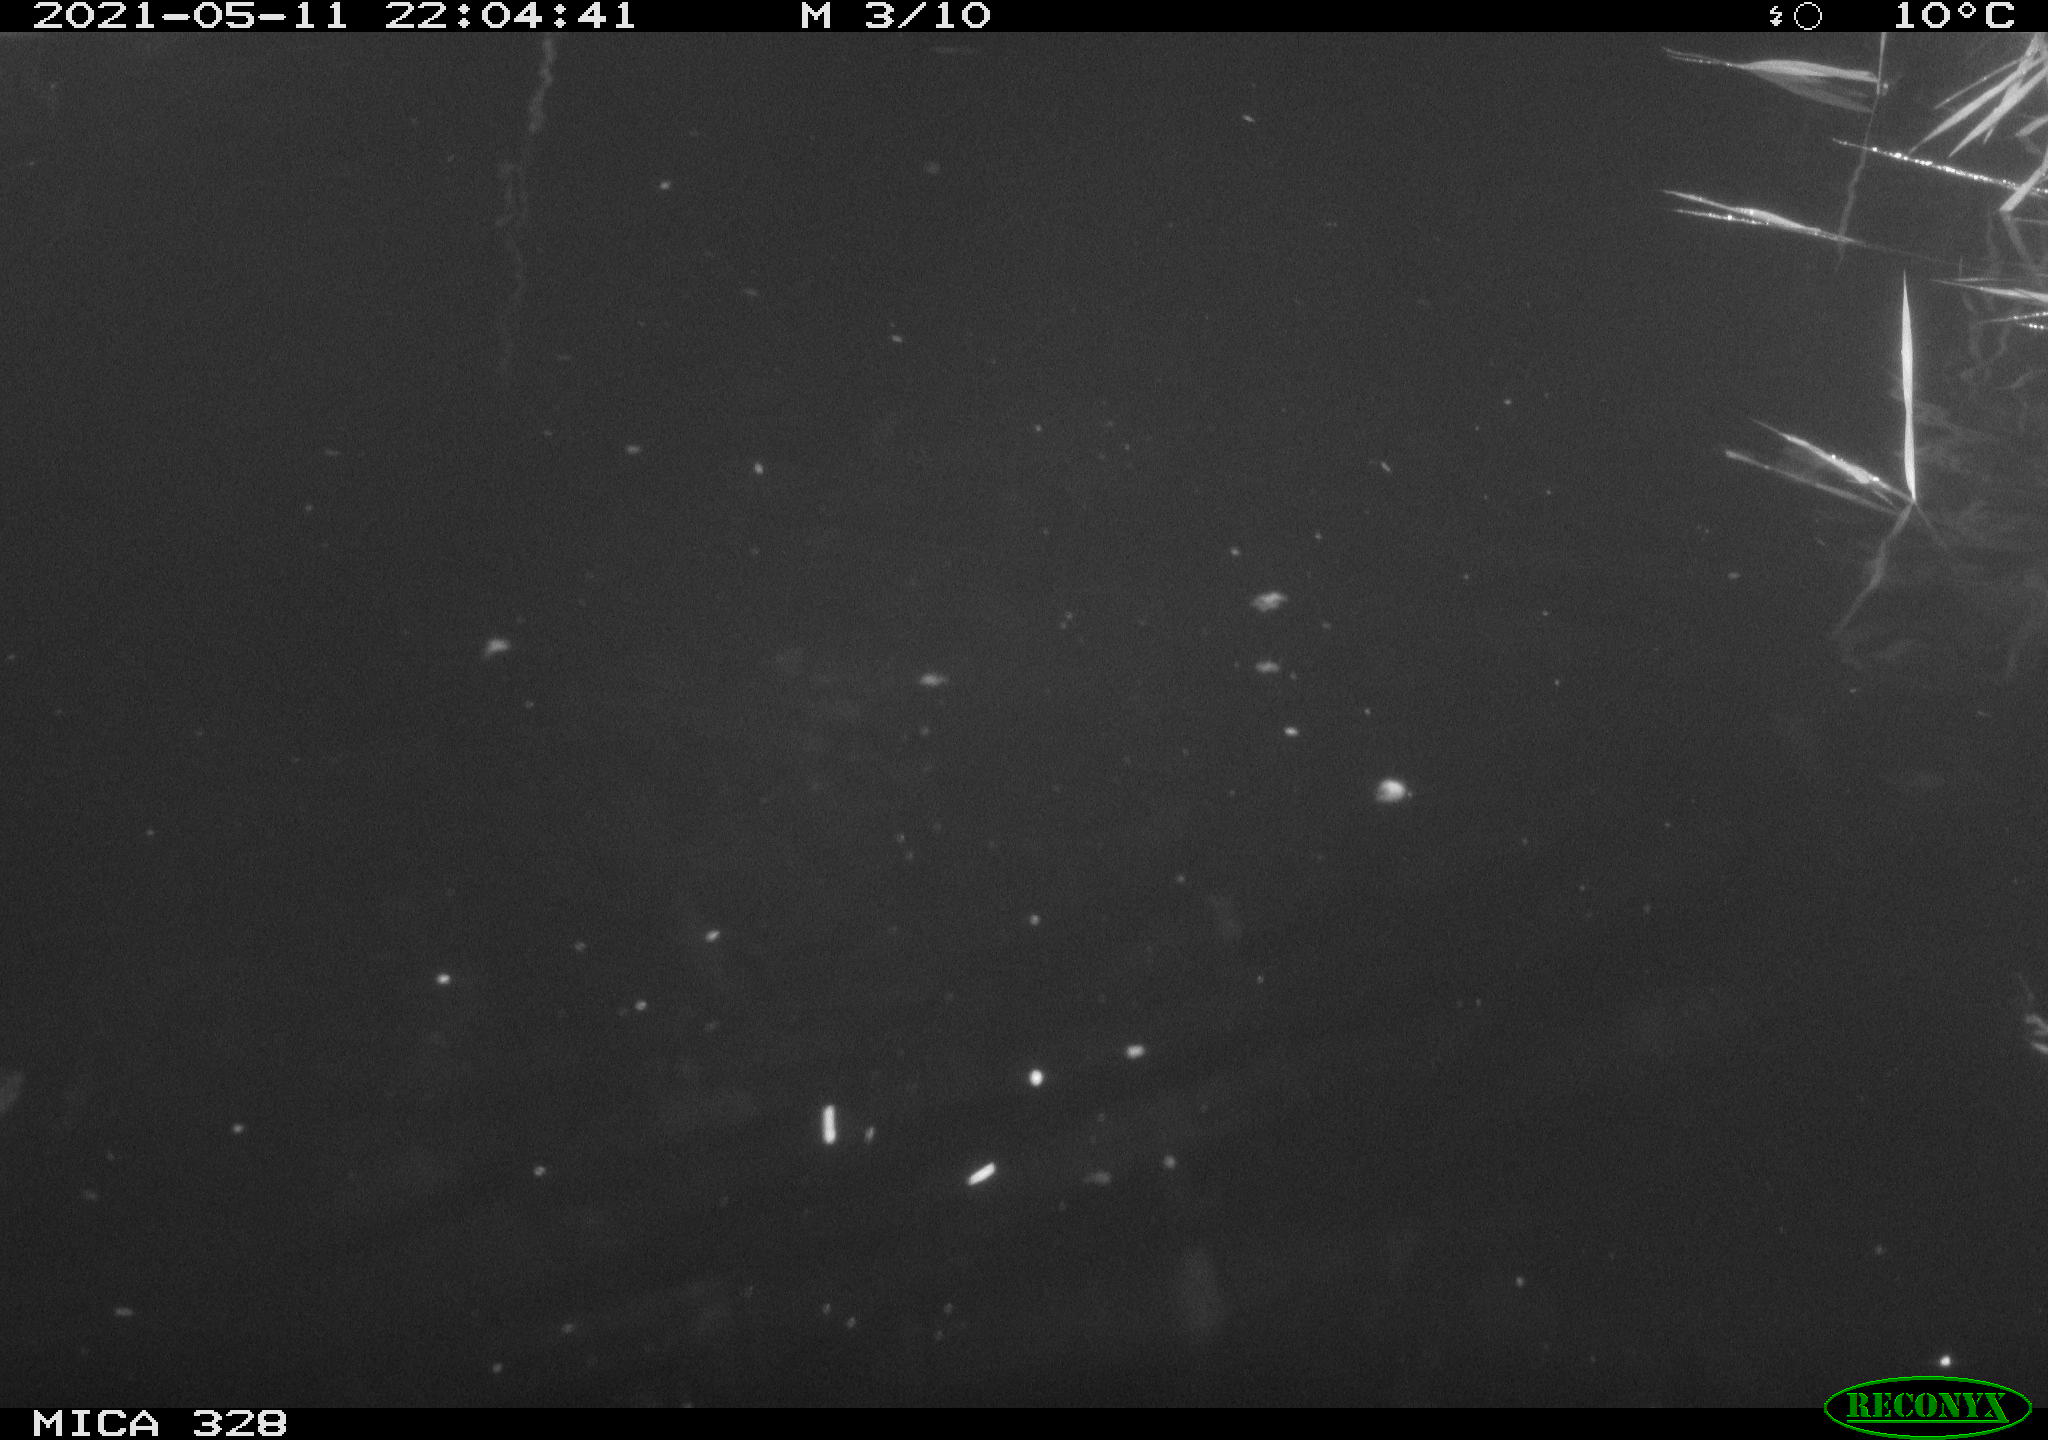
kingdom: Animalia
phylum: Chordata
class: Mammalia
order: Rodentia
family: Cricetidae
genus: Ondatra
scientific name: Ondatra zibethicus
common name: Muskrat
